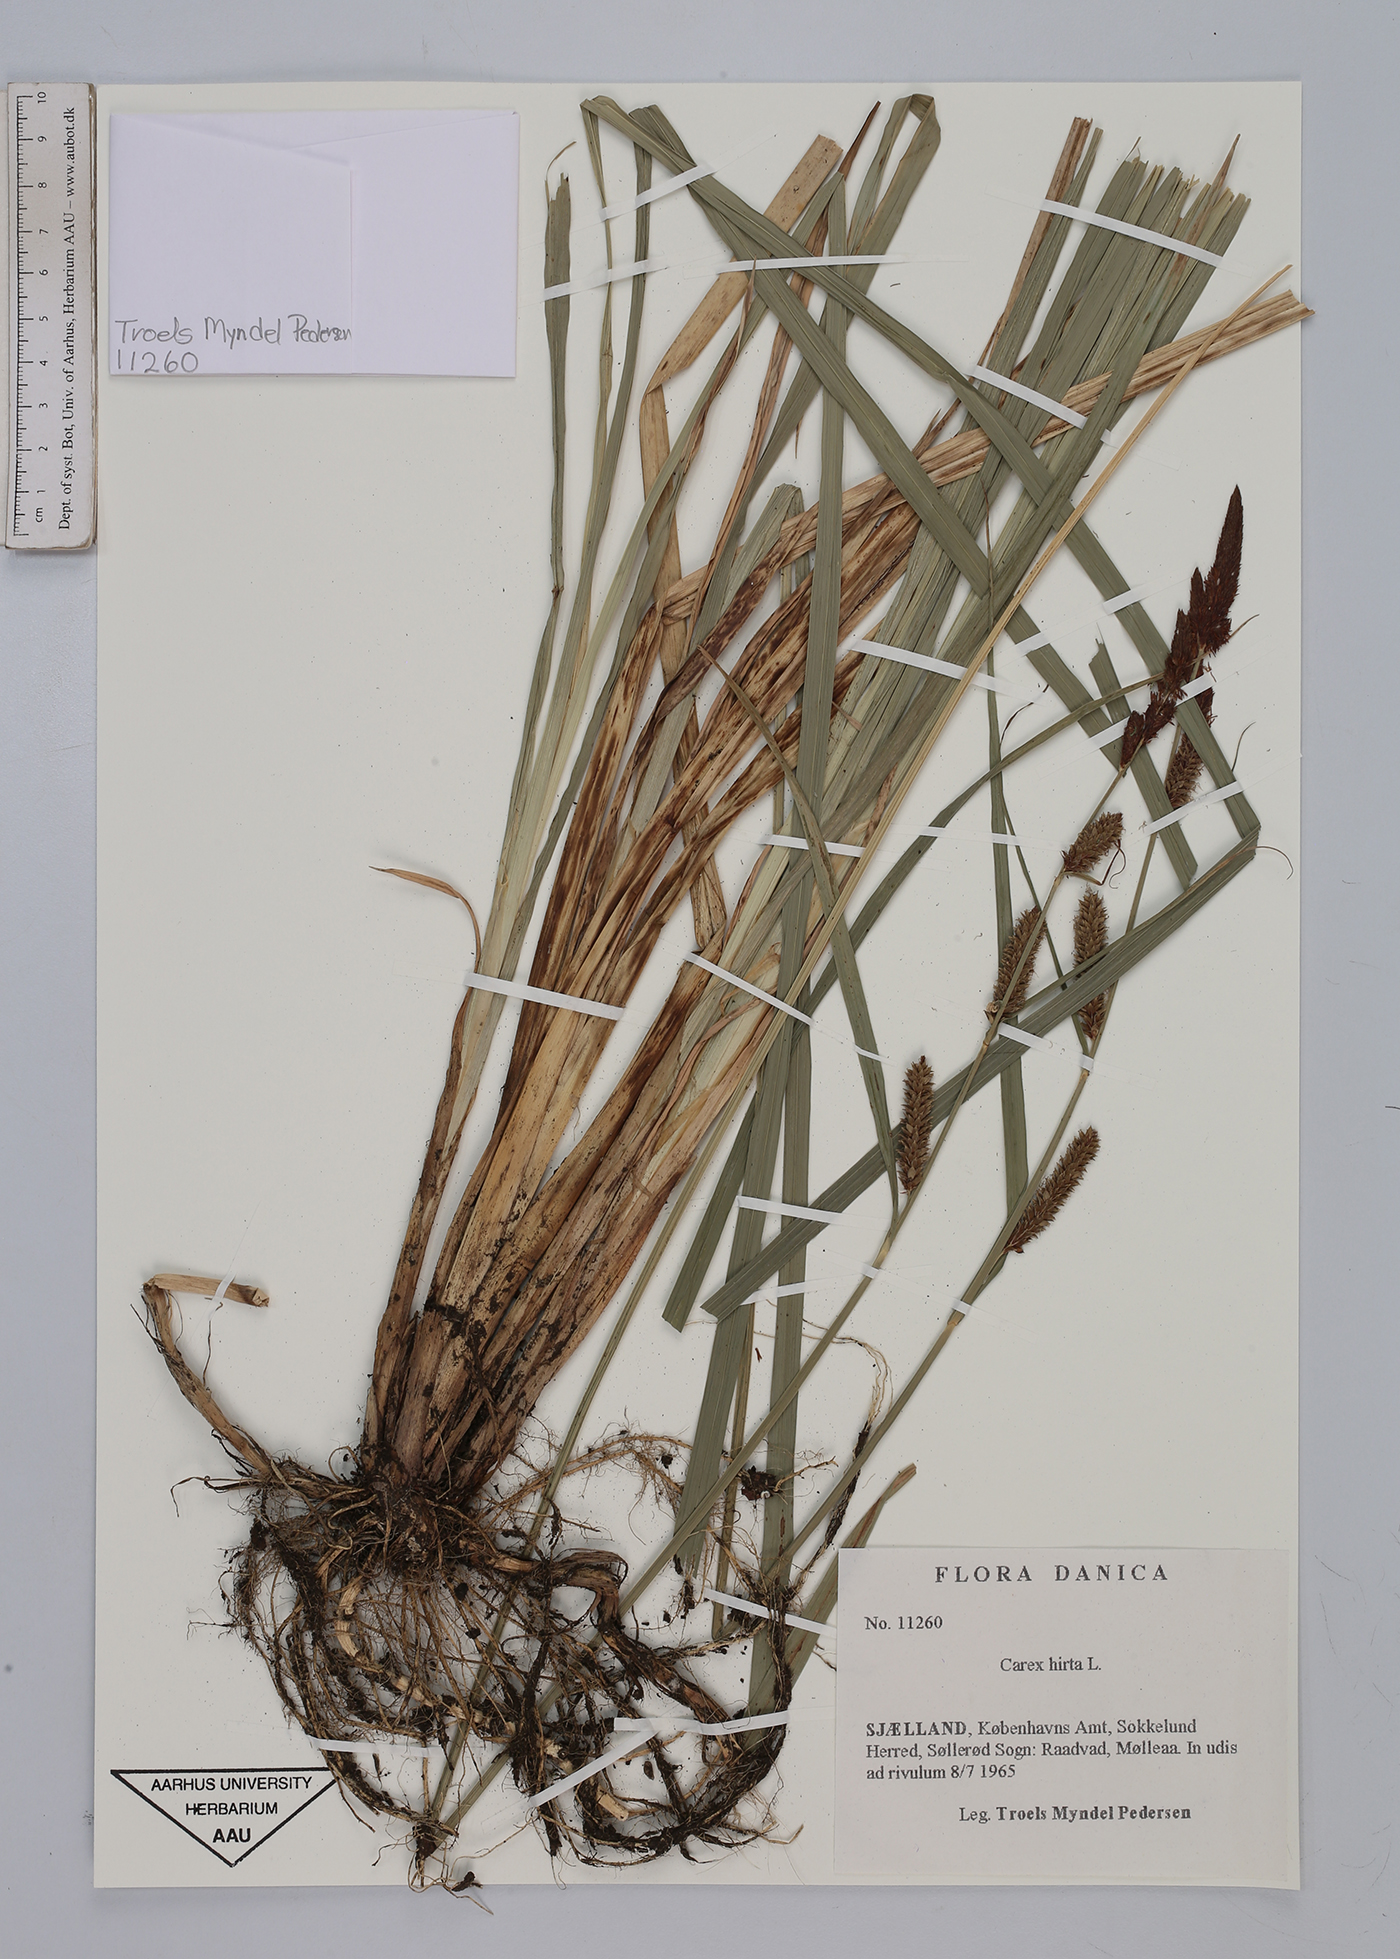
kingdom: Plantae
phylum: Tracheophyta
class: Liliopsida
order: Poales
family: Cyperaceae
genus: Carex
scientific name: Carex hirta
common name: Hairy sedge
